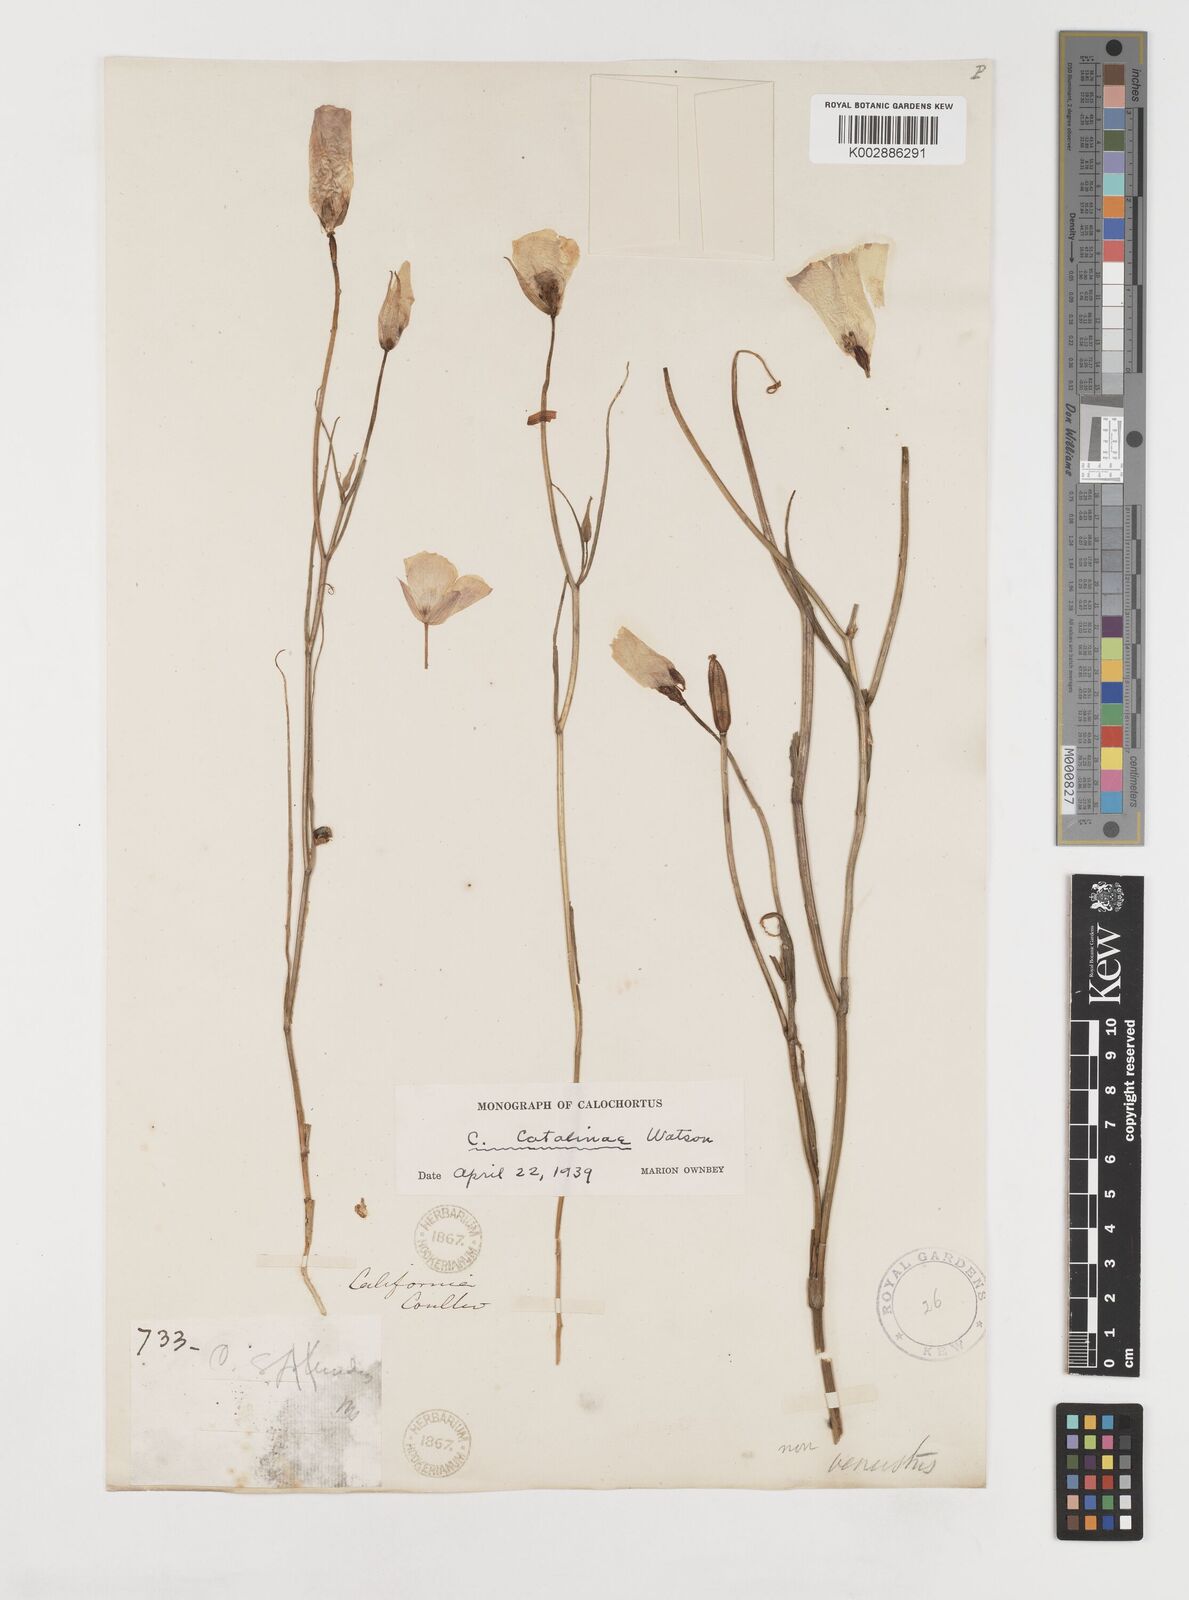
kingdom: Plantae
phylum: Tracheophyta
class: Liliopsida
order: Liliales
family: Liliaceae
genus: Calochortus
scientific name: Calochortus catalinae
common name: Catalina mariposa-lily
